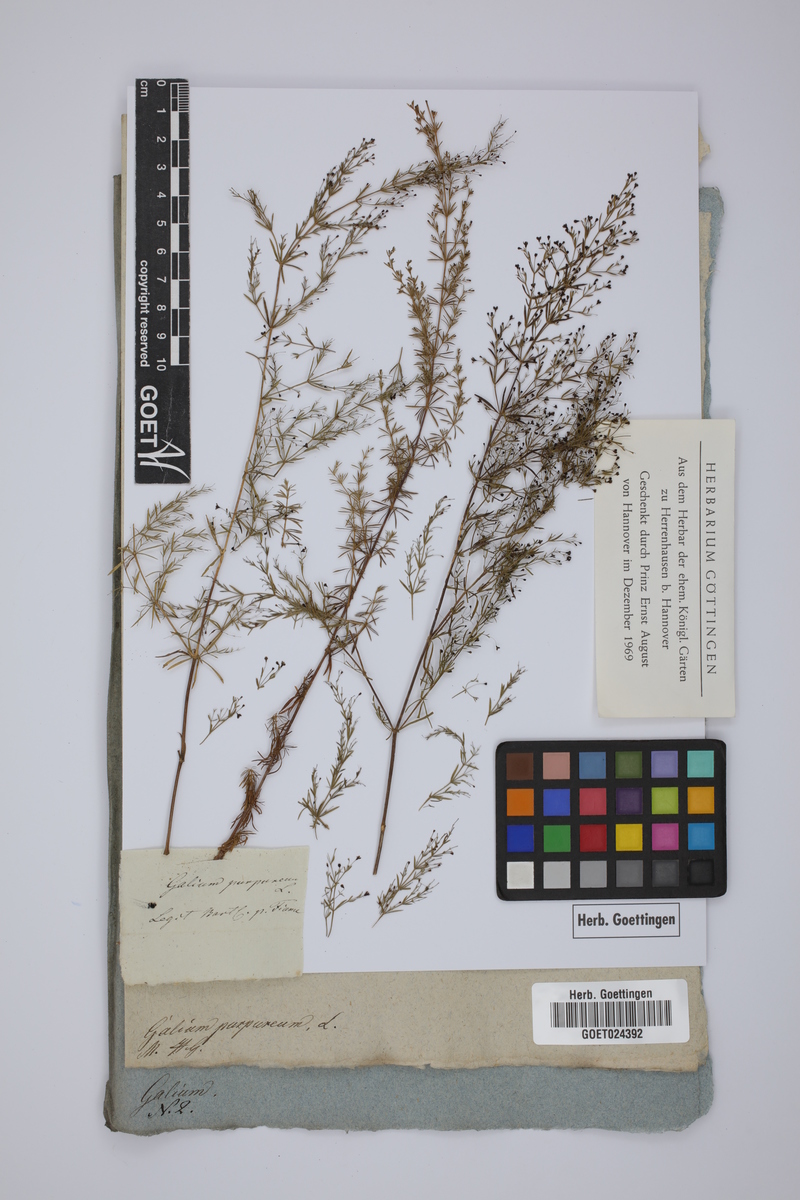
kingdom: Plantae
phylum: Tracheophyta
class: Magnoliopsida
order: Gentianales
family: Rubiaceae
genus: Thliphthisa
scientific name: Thliphthisa purpurea
